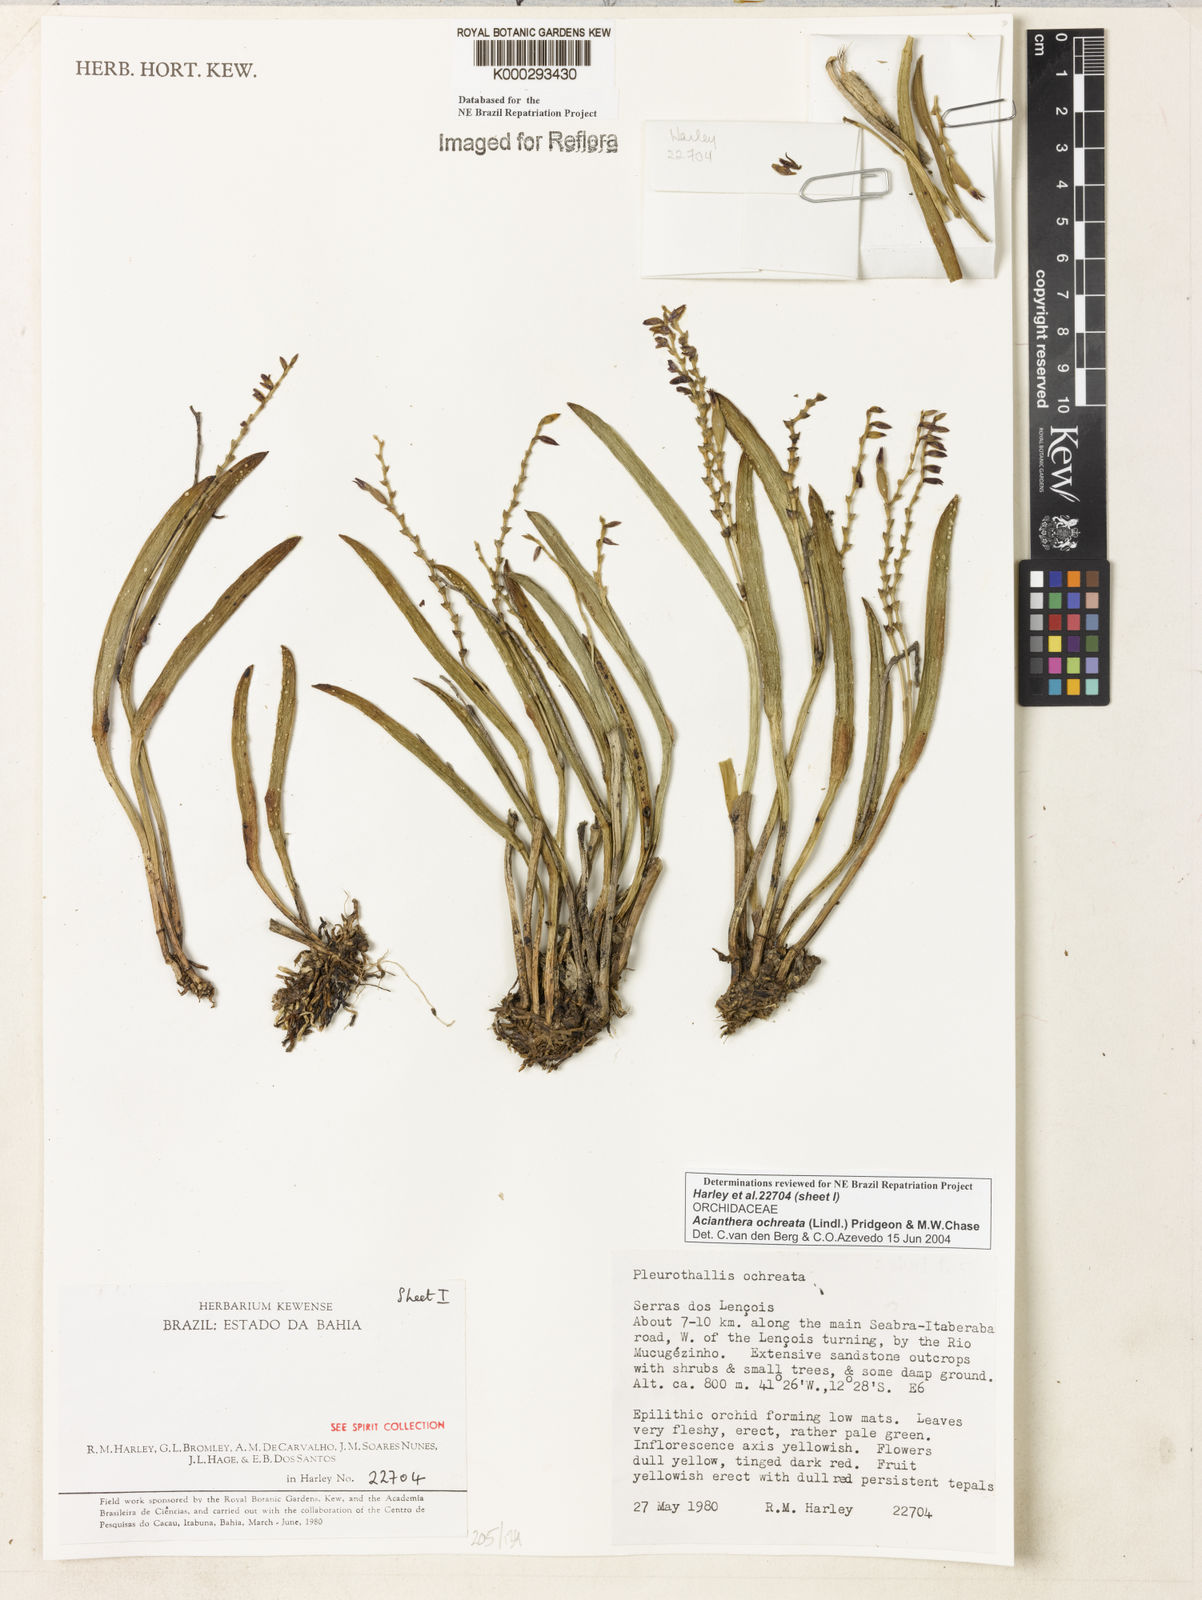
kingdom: Plantae
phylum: Tracheophyta
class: Liliopsida
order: Asparagales
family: Orchidaceae
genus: Acianthera
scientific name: Acianthera ochreata
